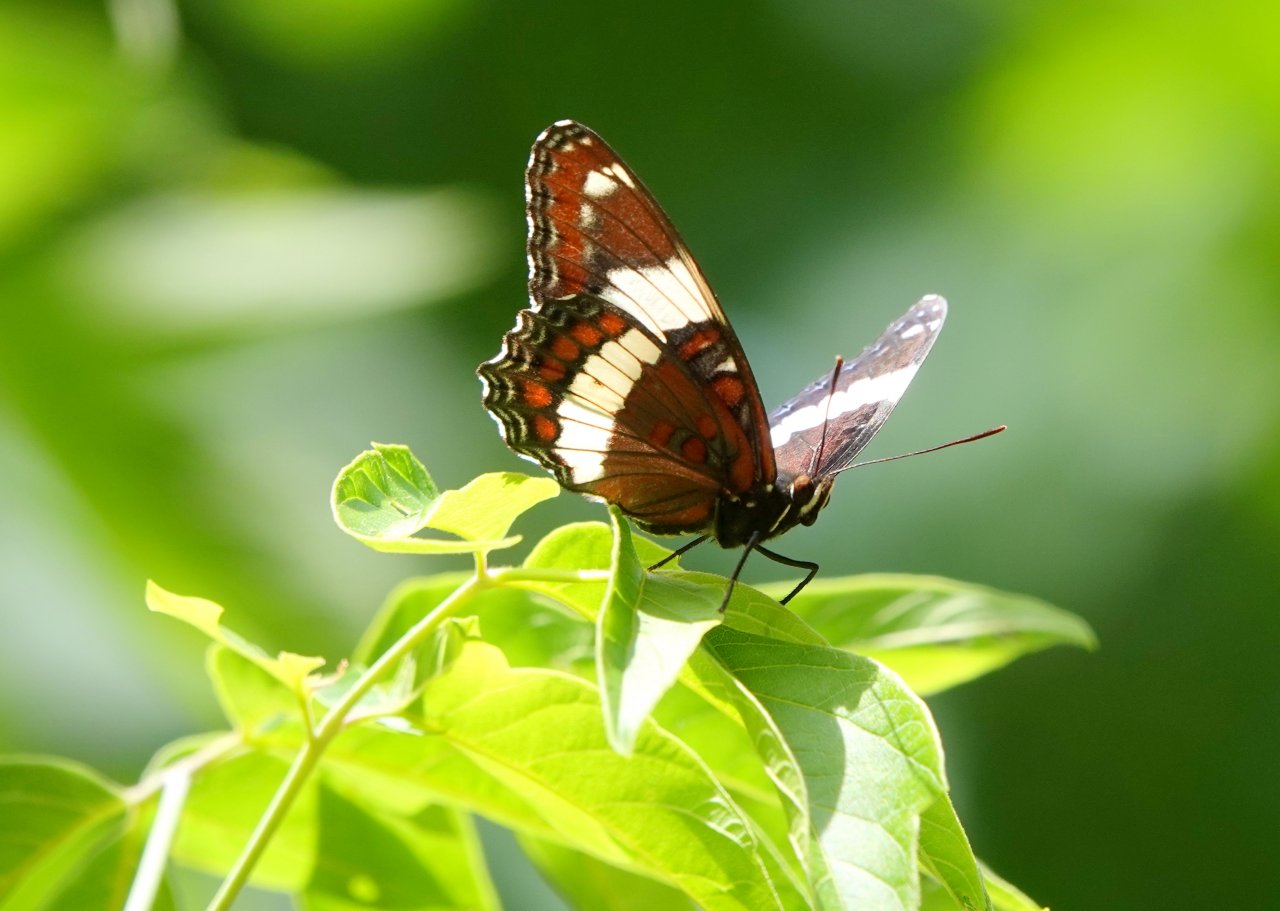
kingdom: Animalia
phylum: Arthropoda
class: Insecta
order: Lepidoptera
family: Nymphalidae
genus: Limenitis
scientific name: Limenitis arthemis
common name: Red-spotted Admiral
